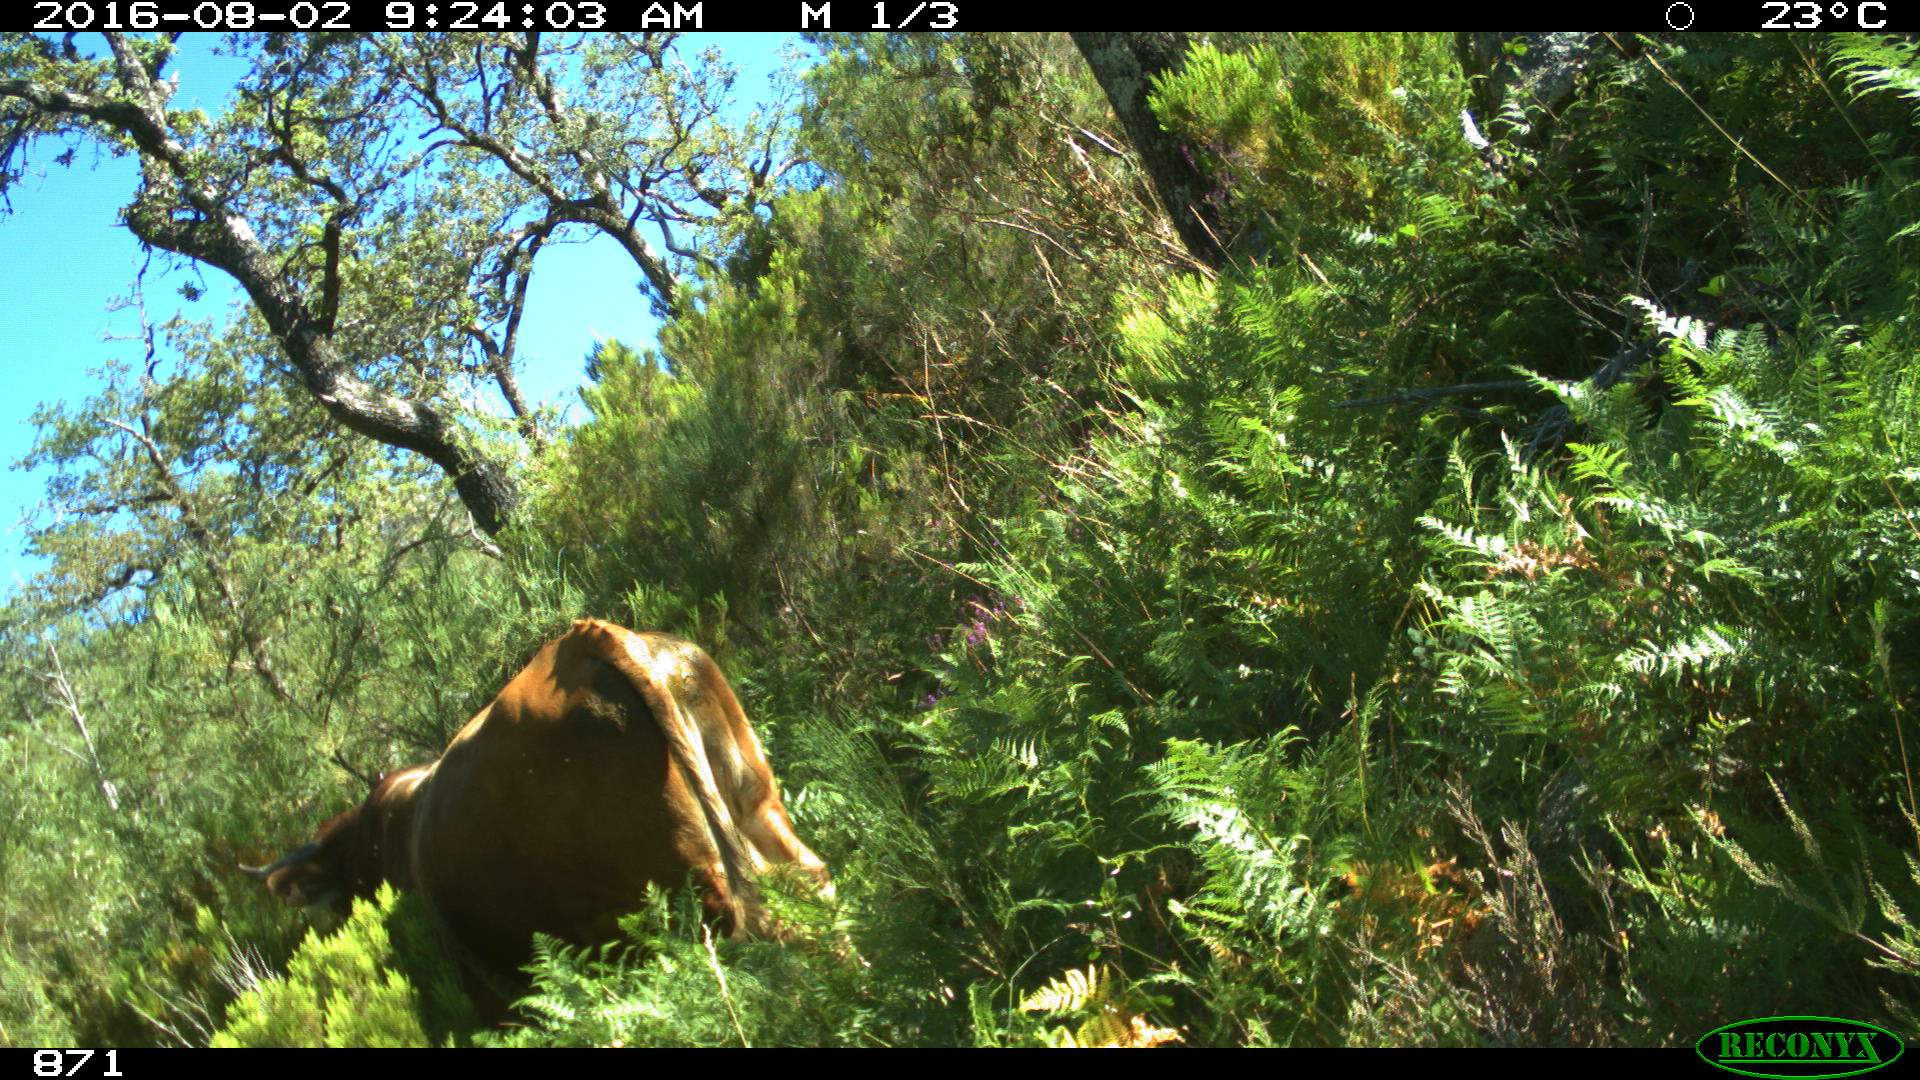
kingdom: Animalia
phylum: Chordata
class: Mammalia
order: Artiodactyla
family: Bovidae
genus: Bos
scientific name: Bos taurus
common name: Domesticated cattle
